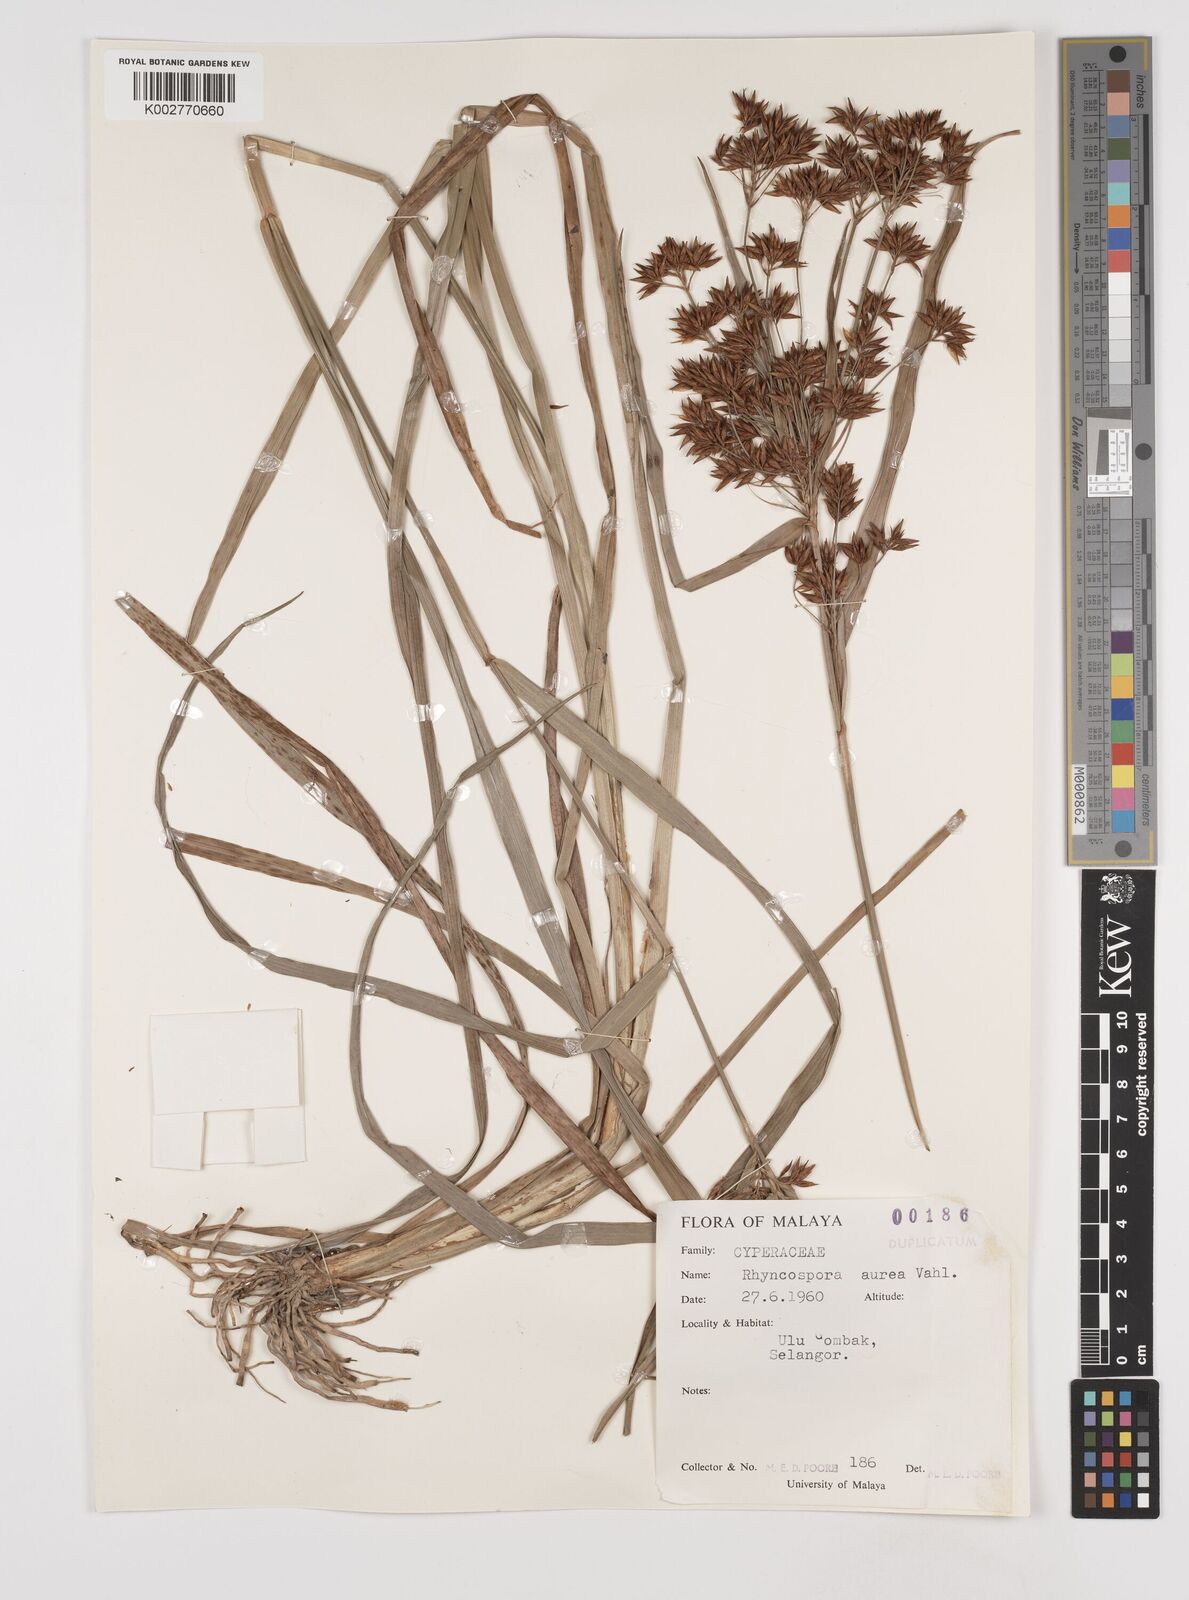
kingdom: Plantae
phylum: Tracheophyta
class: Liliopsida
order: Poales
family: Cyperaceae
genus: Rhynchospora
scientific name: Rhynchospora corymbosa
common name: Golden beak sedge
